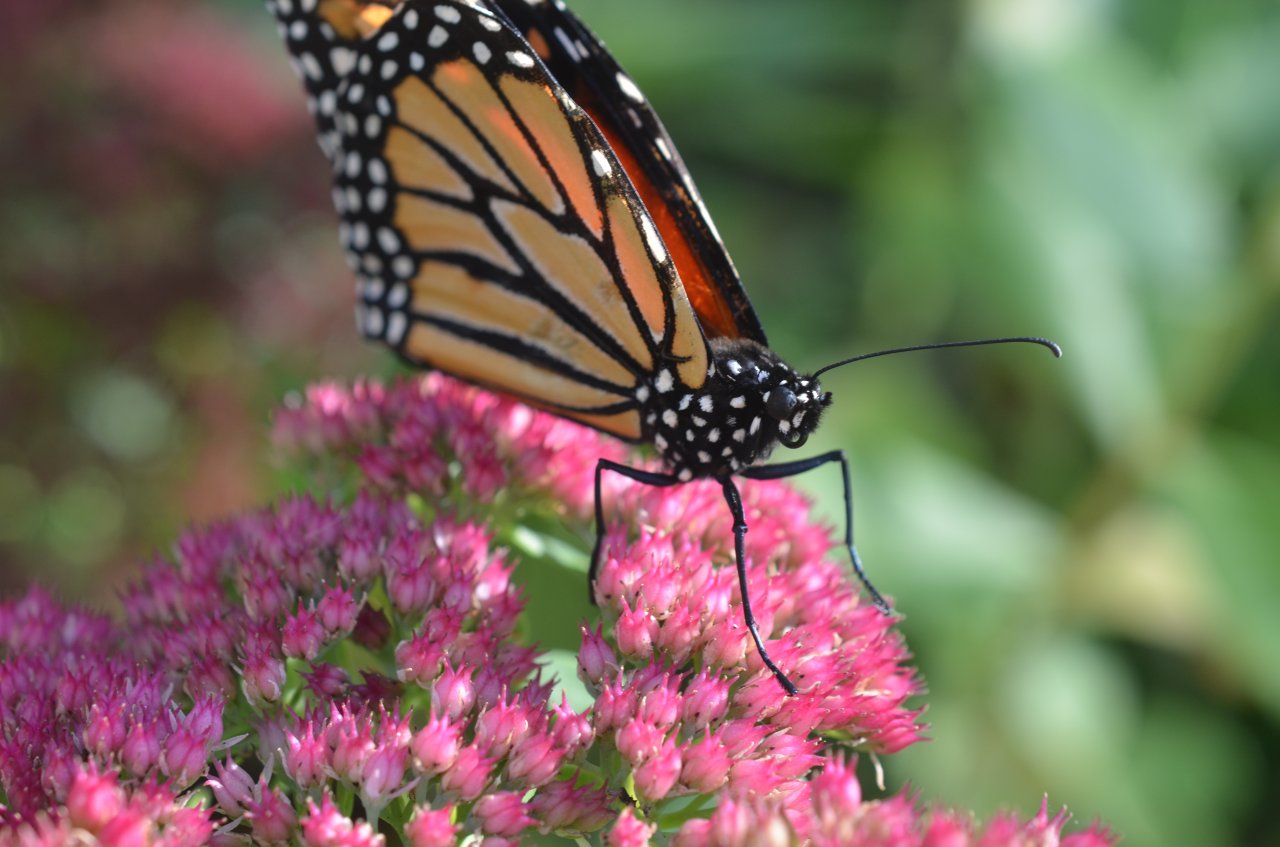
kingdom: Animalia
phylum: Arthropoda
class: Insecta
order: Lepidoptera
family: Nymphalidae
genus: Danaus
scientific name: Danaus plexippus
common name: Monarch
